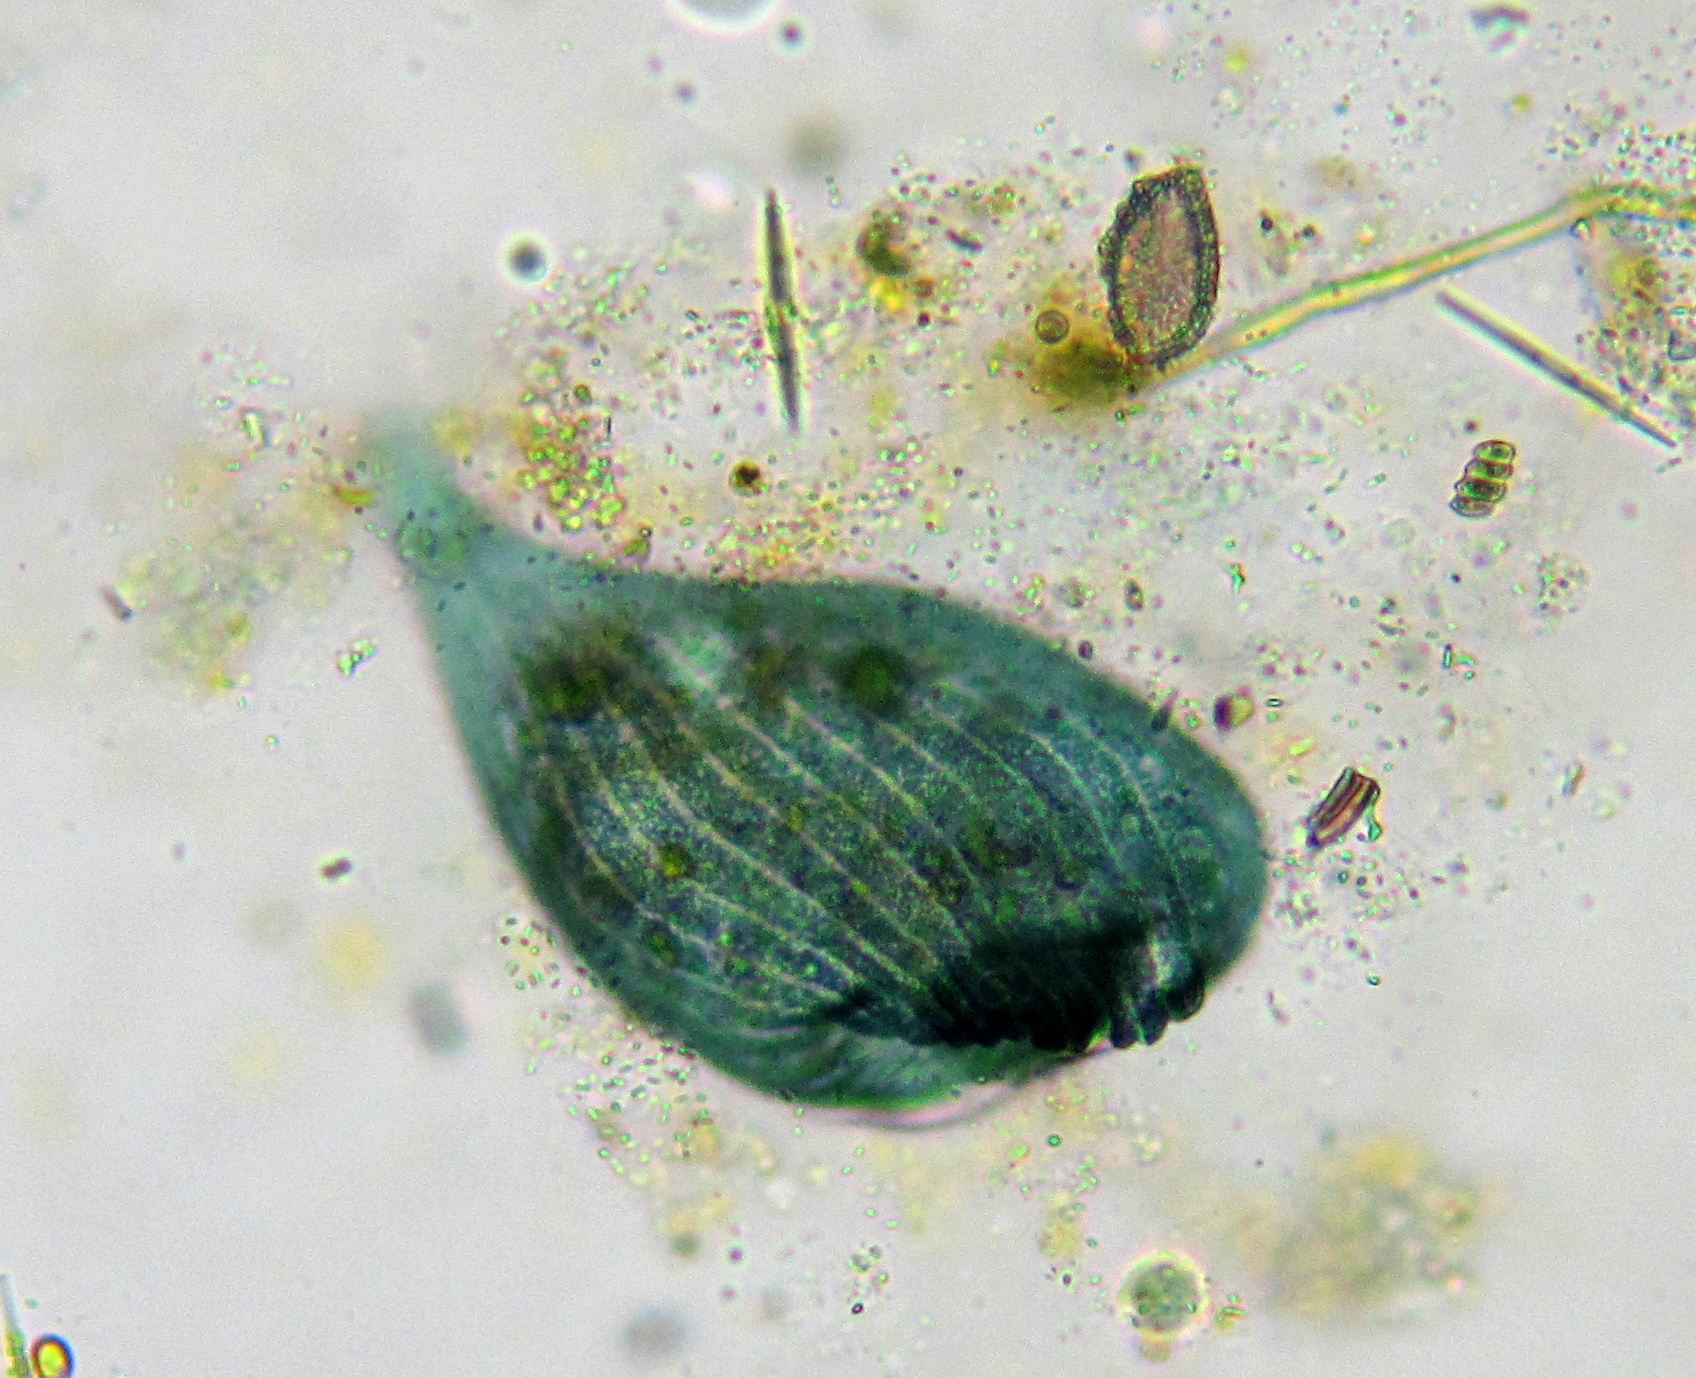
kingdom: Chromista
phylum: Ciliophora
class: Heterotrichea
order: Heterotrichida
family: Stentoridae
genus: Stentor
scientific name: Stentor coeruleus
